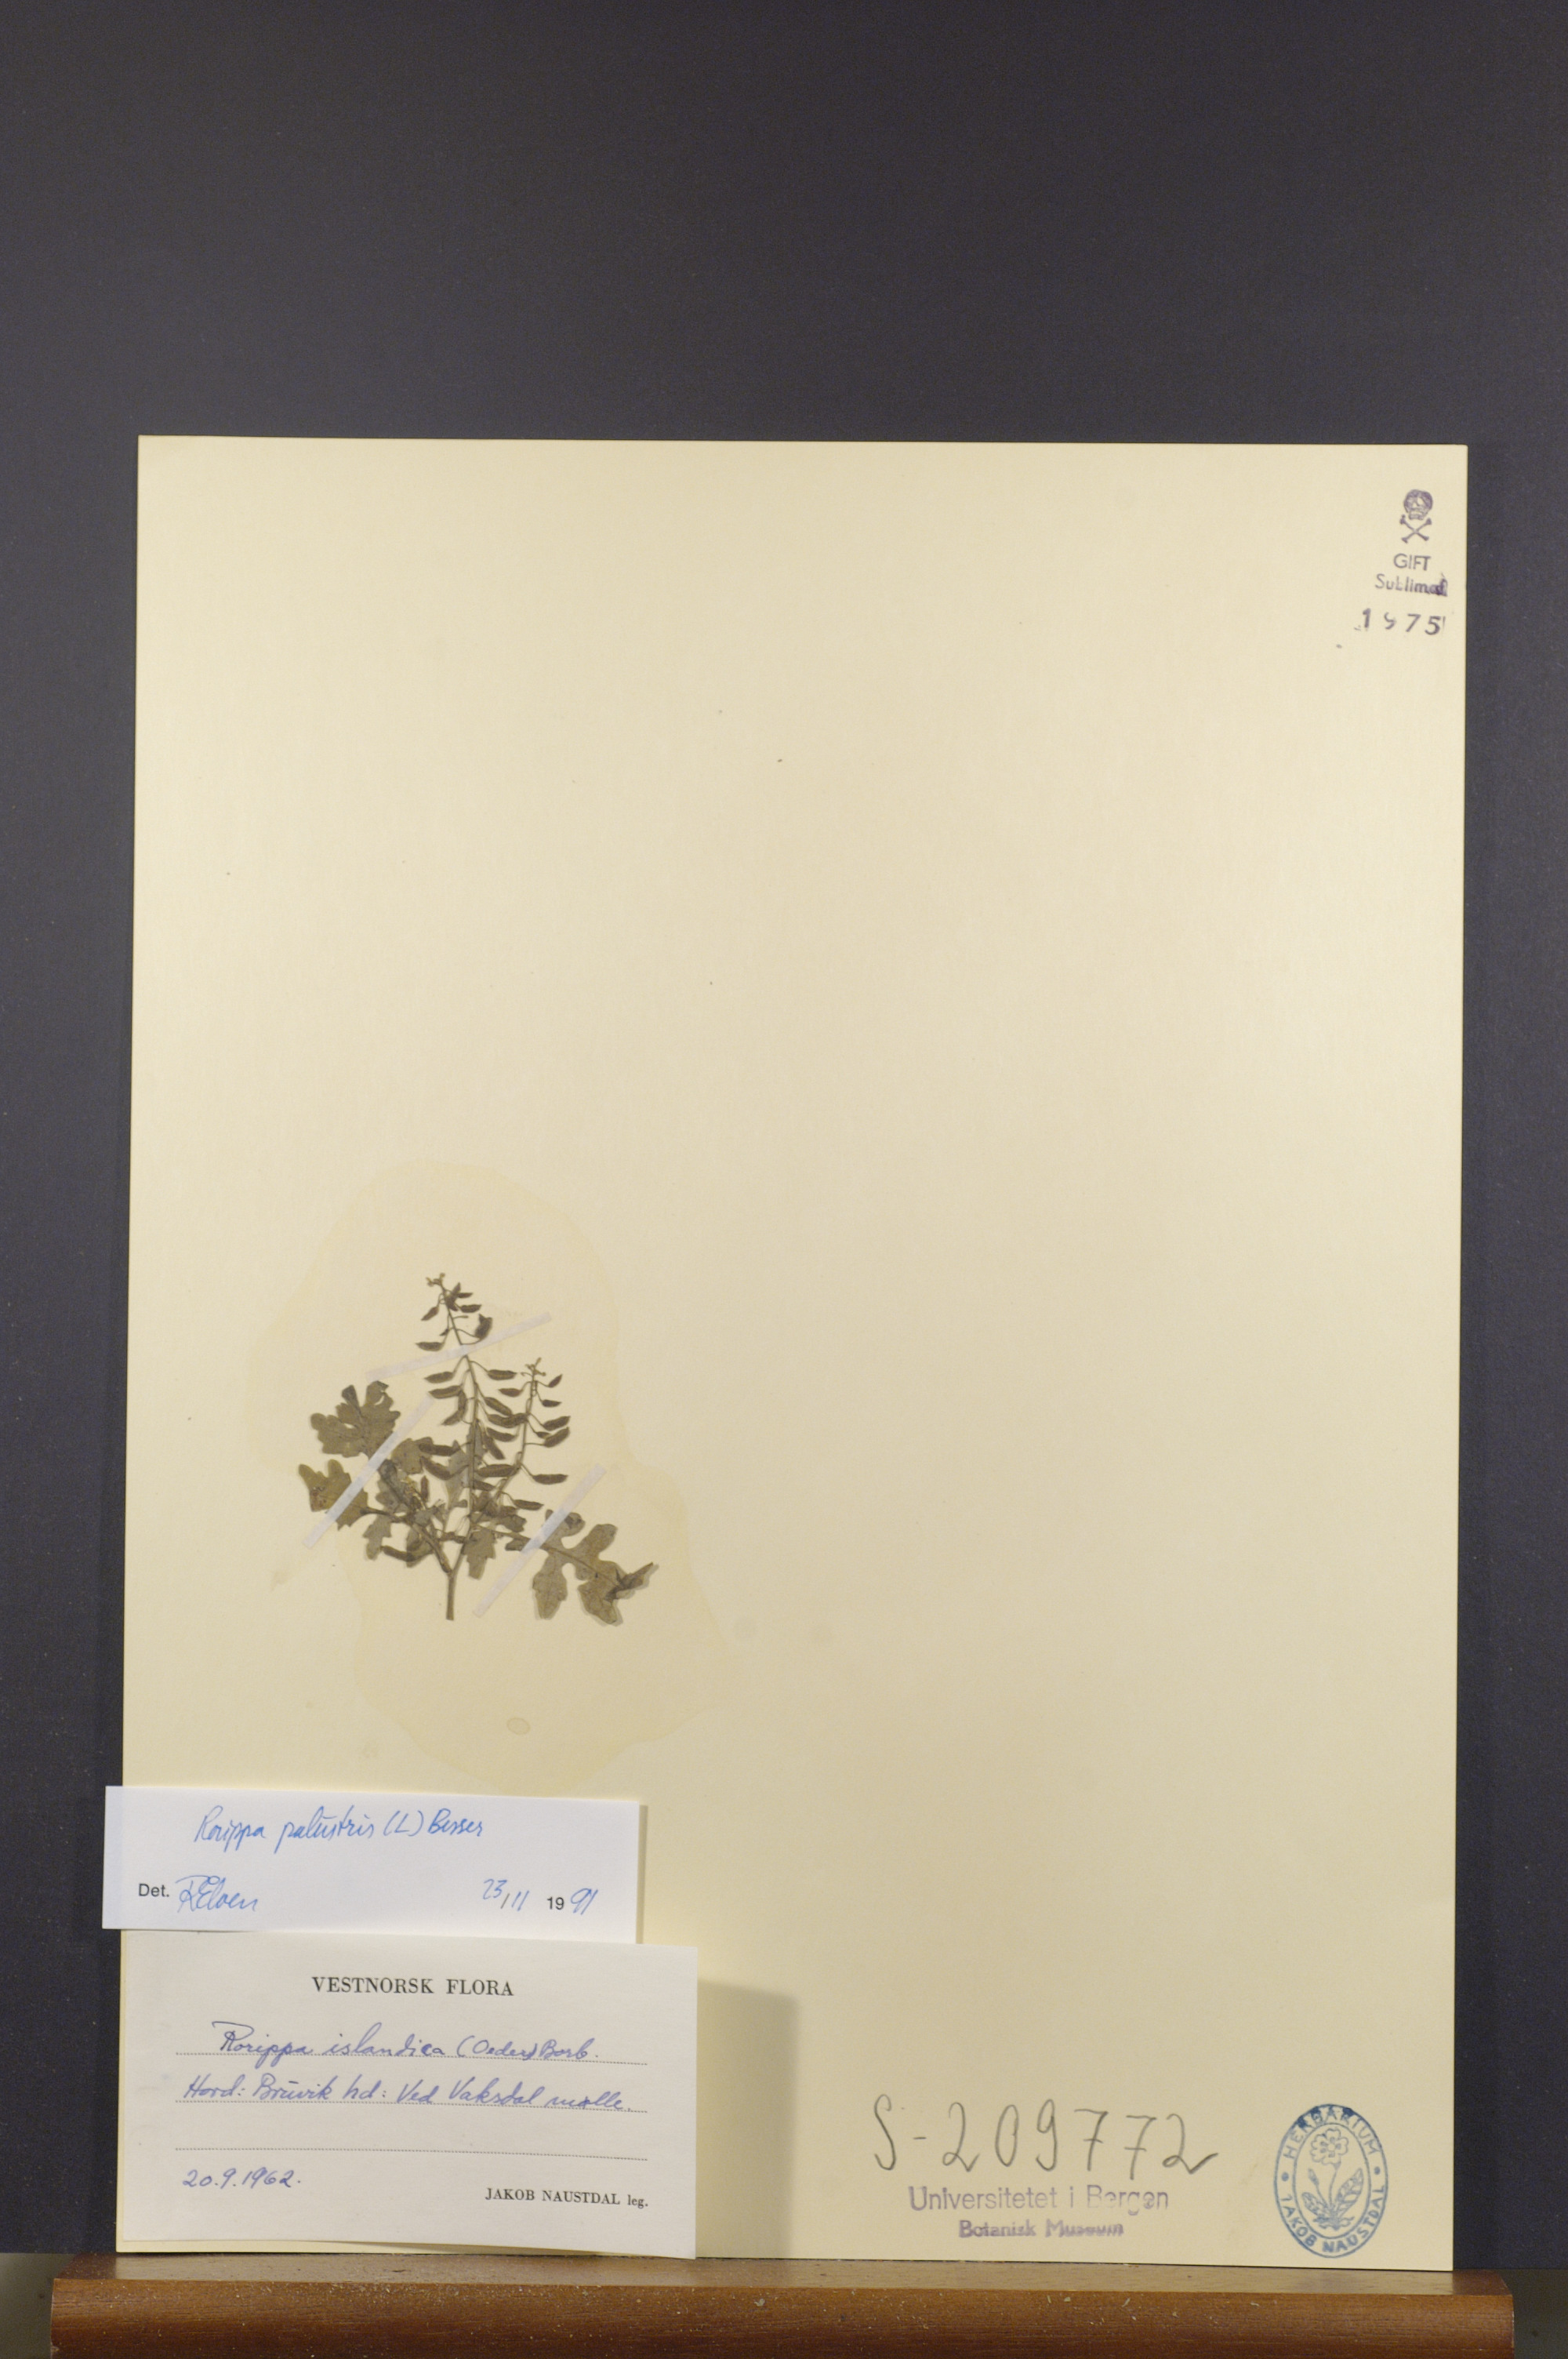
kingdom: Plantae
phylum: Tracheophyta
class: Magnoliopsida
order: Brassicales
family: Brassicaceae
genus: Rorippa
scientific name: Rorippa palustris
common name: Marsh yellow-cress
